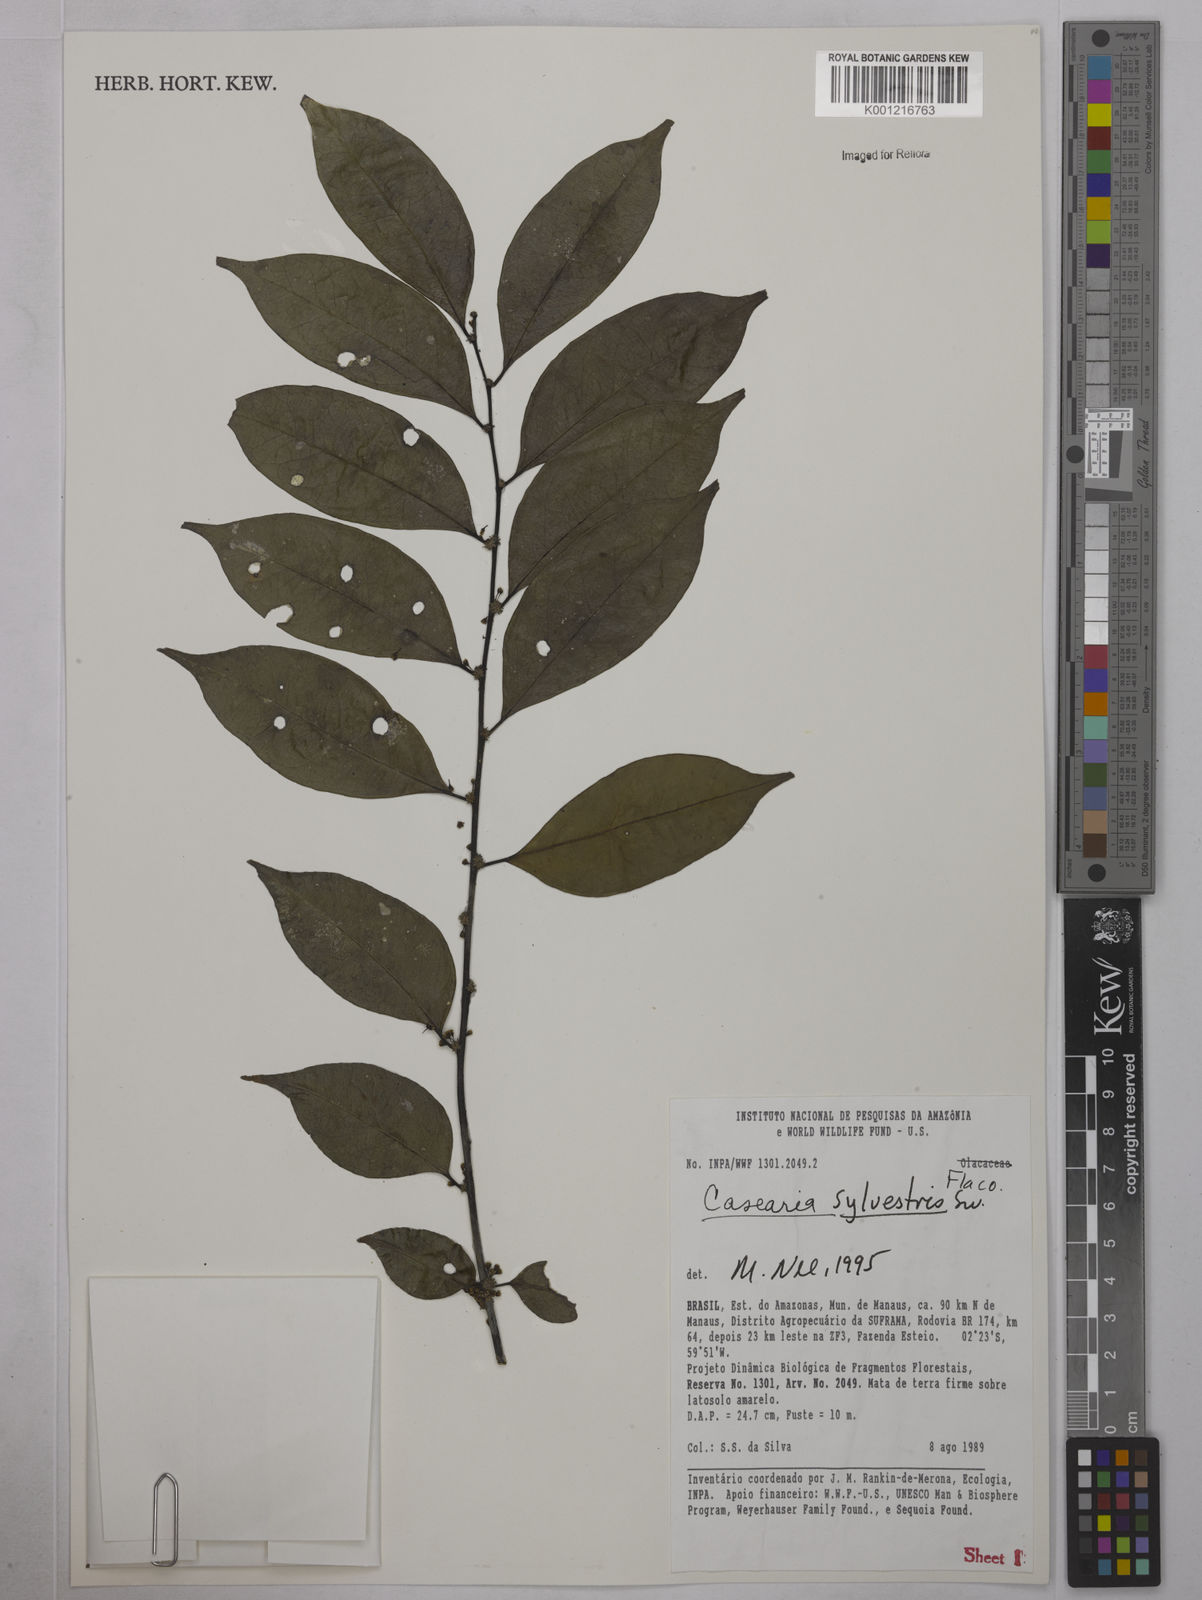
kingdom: Plantae
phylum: Tracheophyta
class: Magnoliopsida
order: Malpighiales
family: Salicaceae
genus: Casearia
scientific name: Casearia sylvestris
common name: Wild sage
